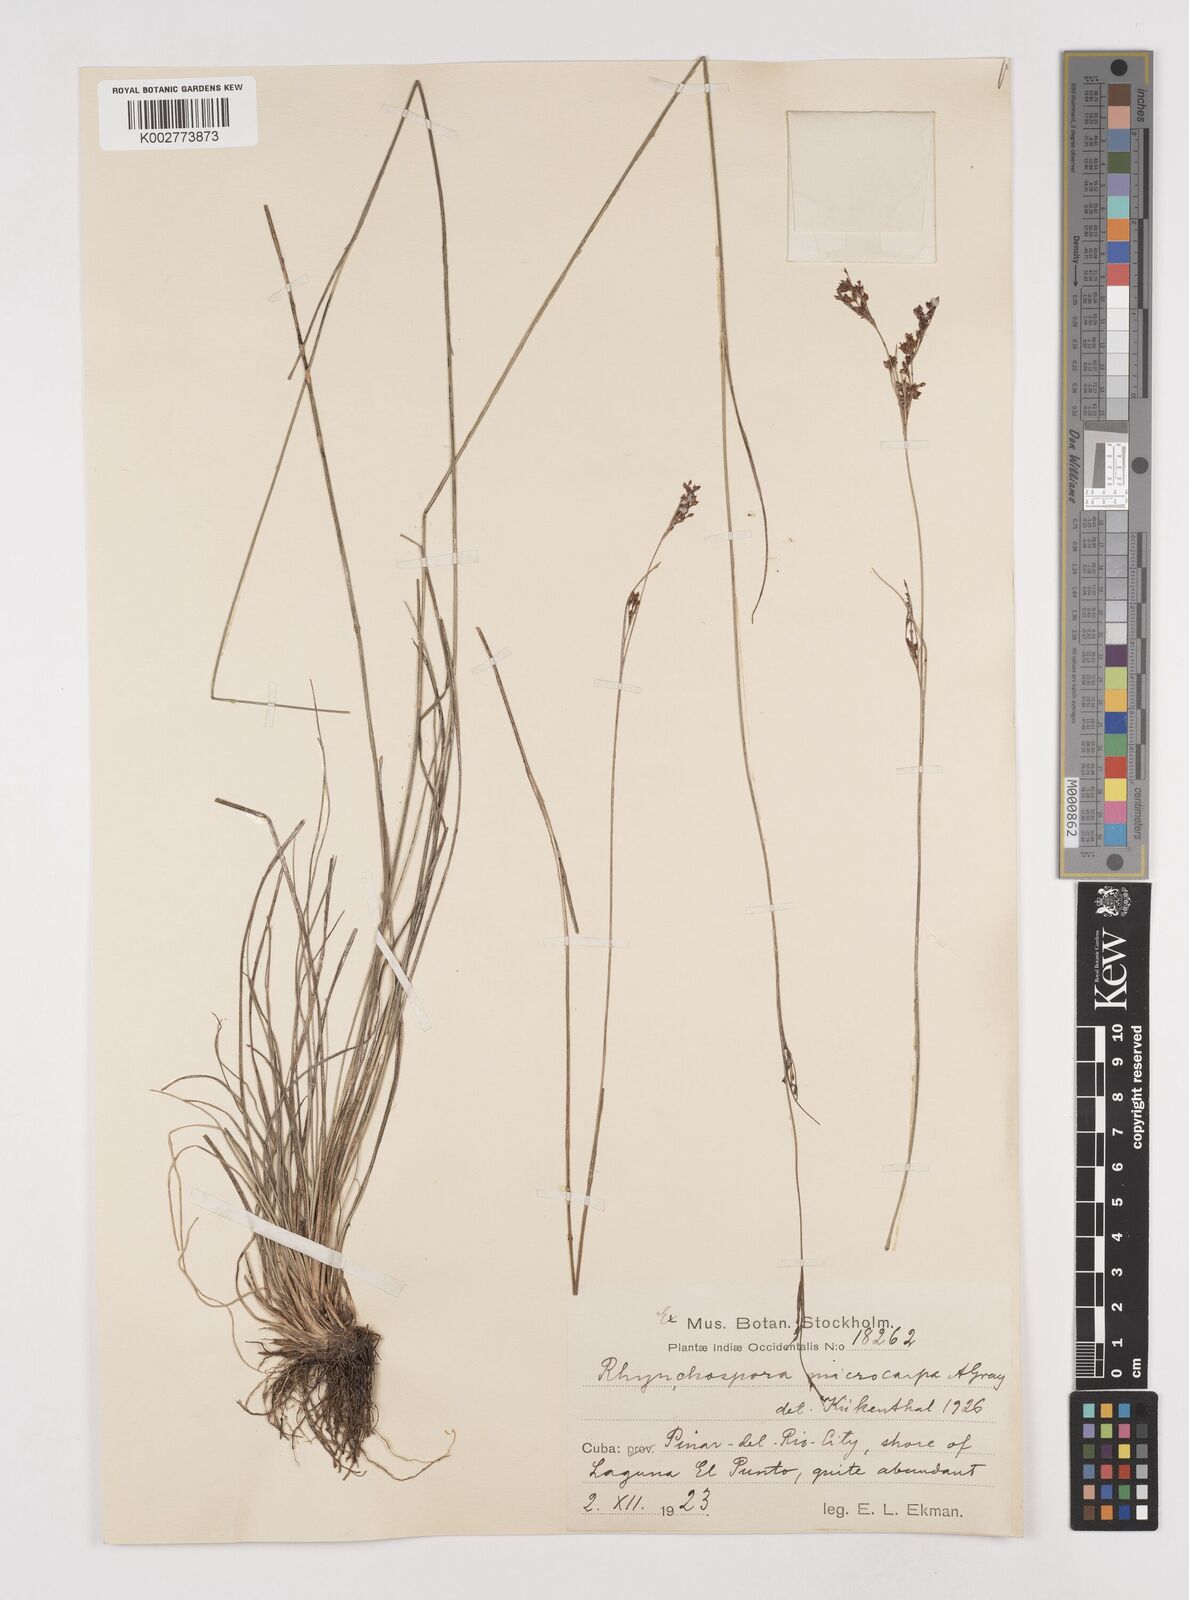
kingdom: Plantae
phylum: Tracheophyta
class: Liliopsida
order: Poales
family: Cyperaceae
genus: Rhynchospora
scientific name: Rhynchospora microcarpa
